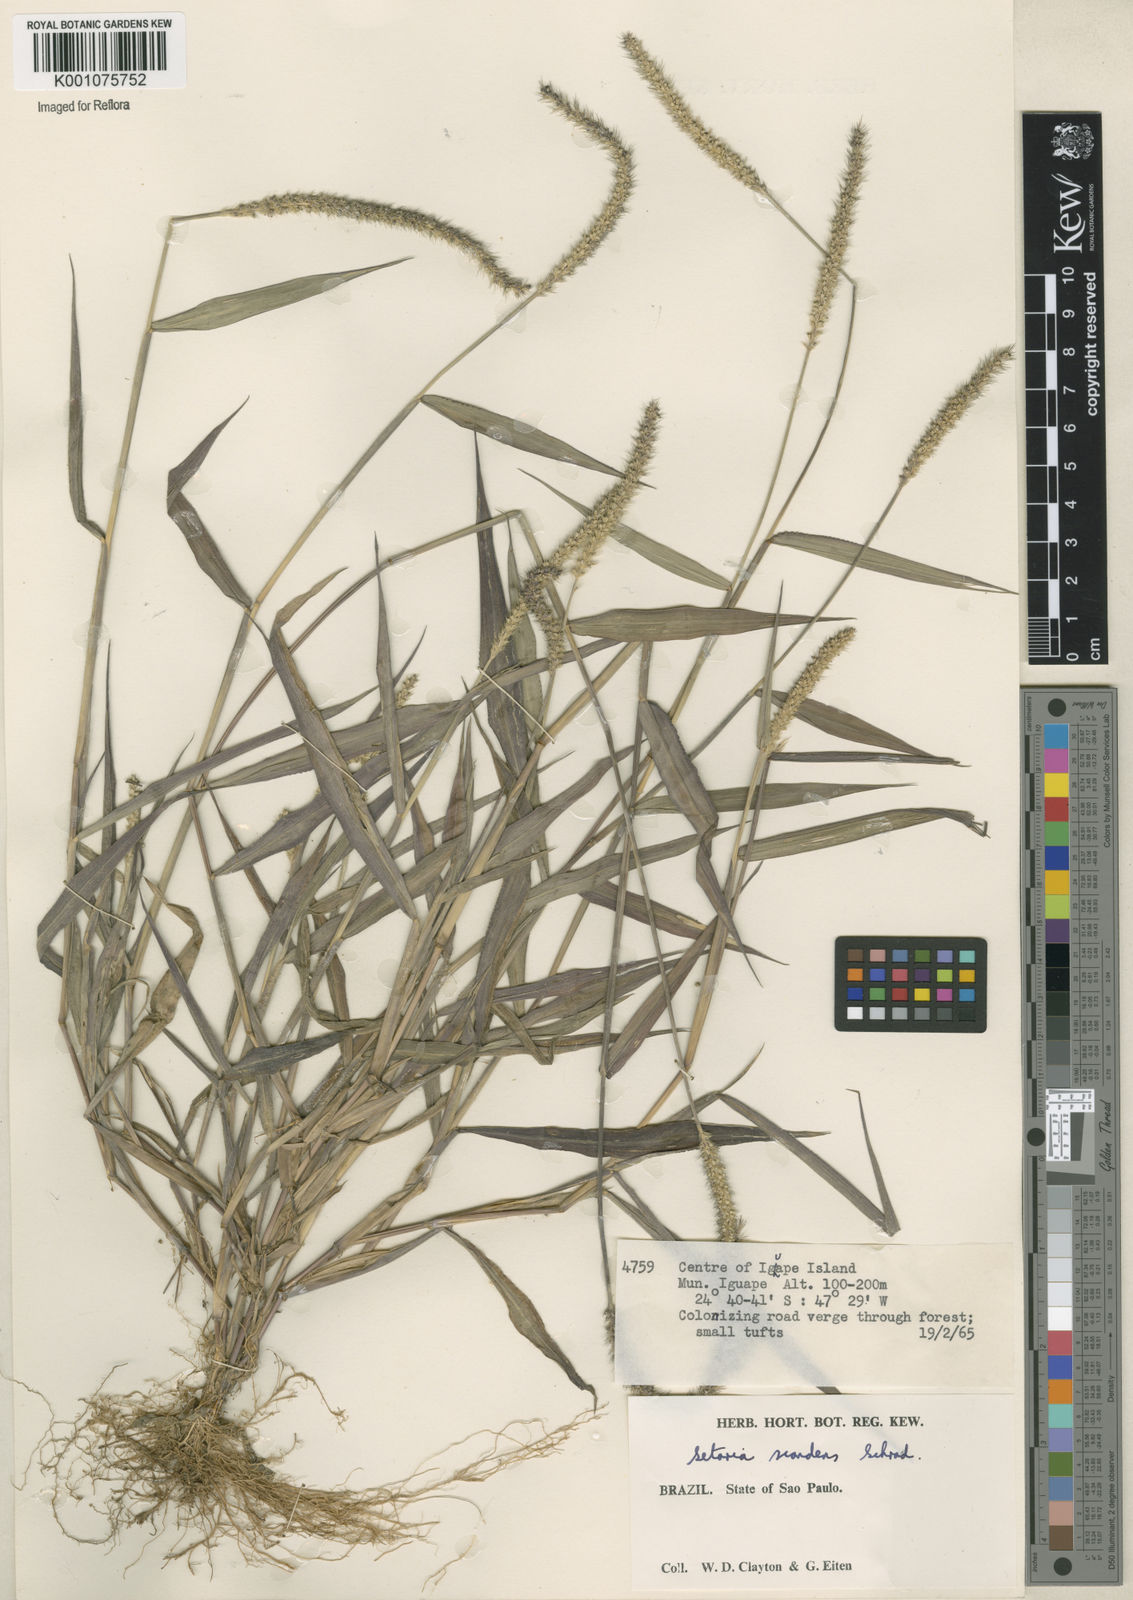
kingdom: Plantae
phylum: Tracheophyta
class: Liliopsida
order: Poales
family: Poaceae
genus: Setaria
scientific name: Setaria scandens
